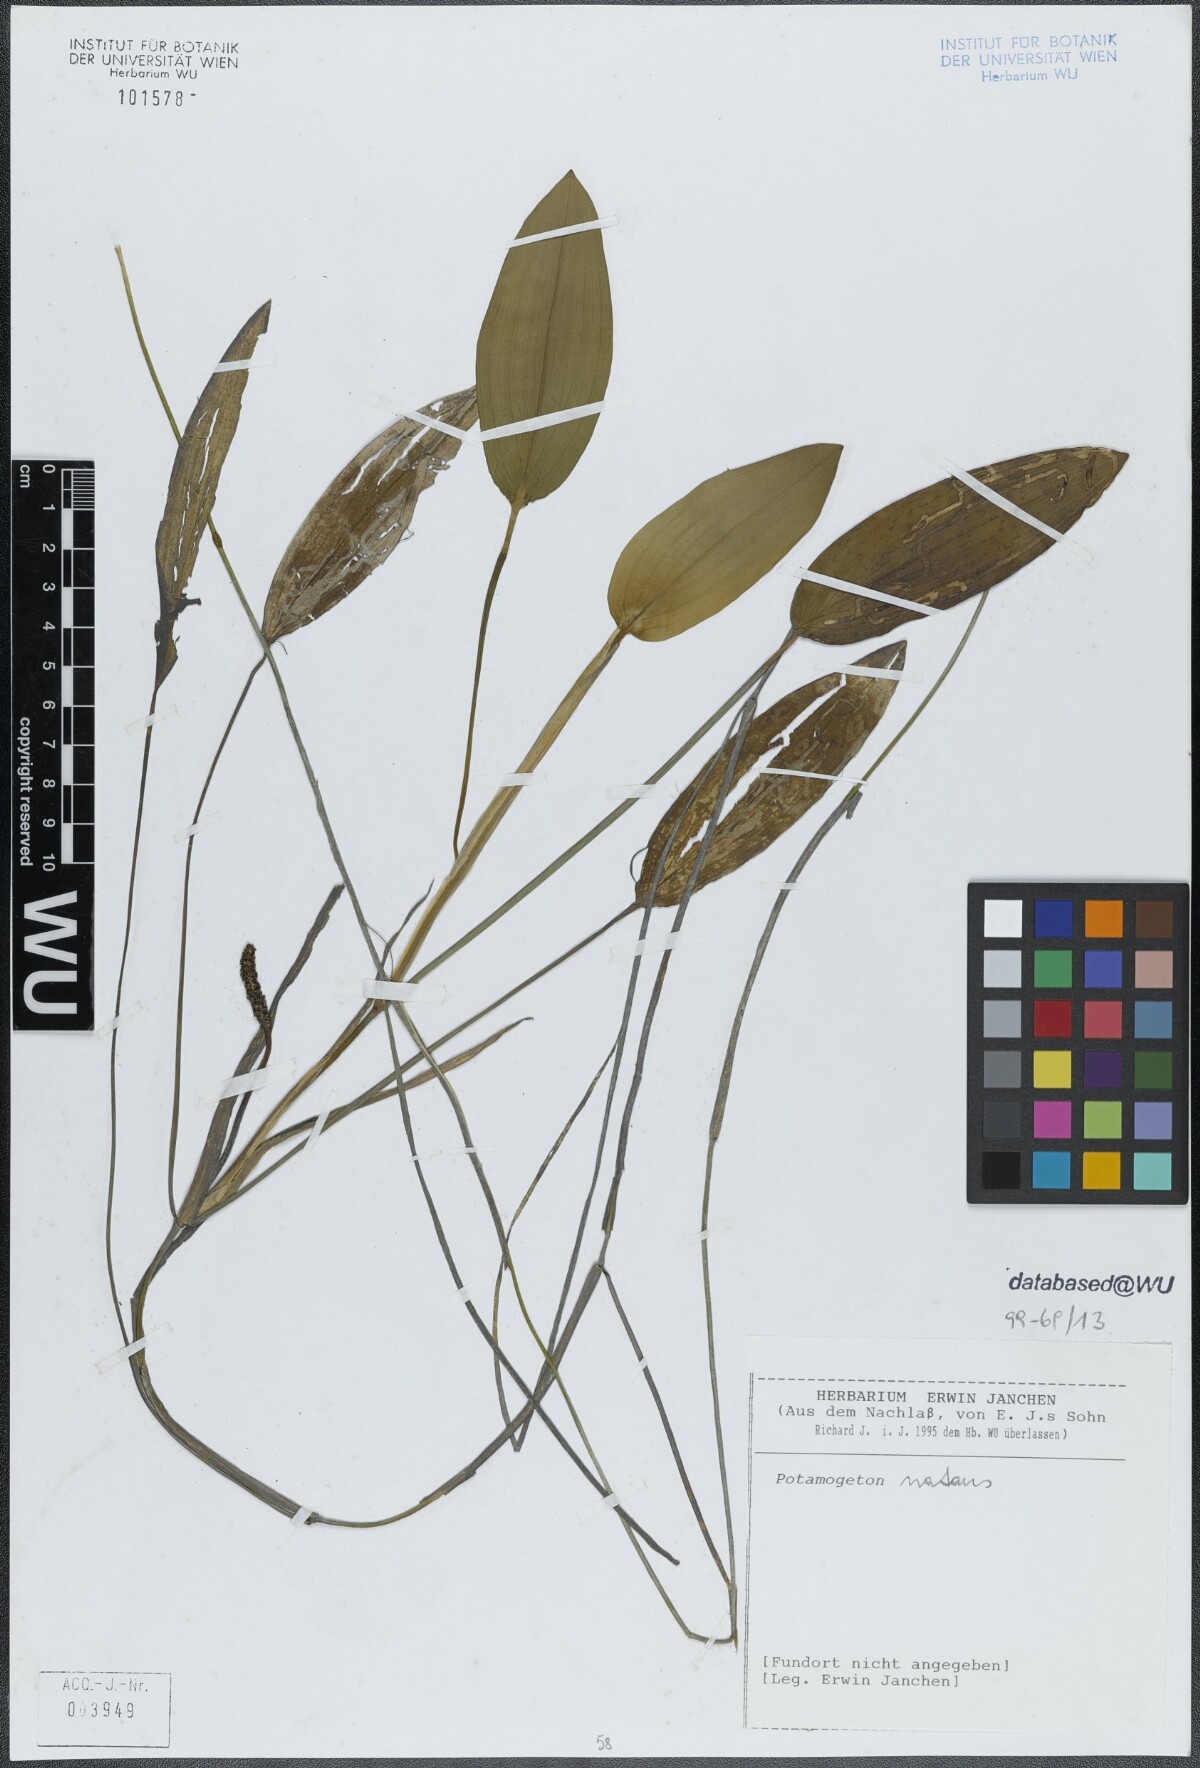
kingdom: Plantae
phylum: Tracheophyta
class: Liliopsida
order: Alismatales
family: Potamogetonaceae
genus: Potamogeton
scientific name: Potamogeton natans
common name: Broad-leaved pondweed
